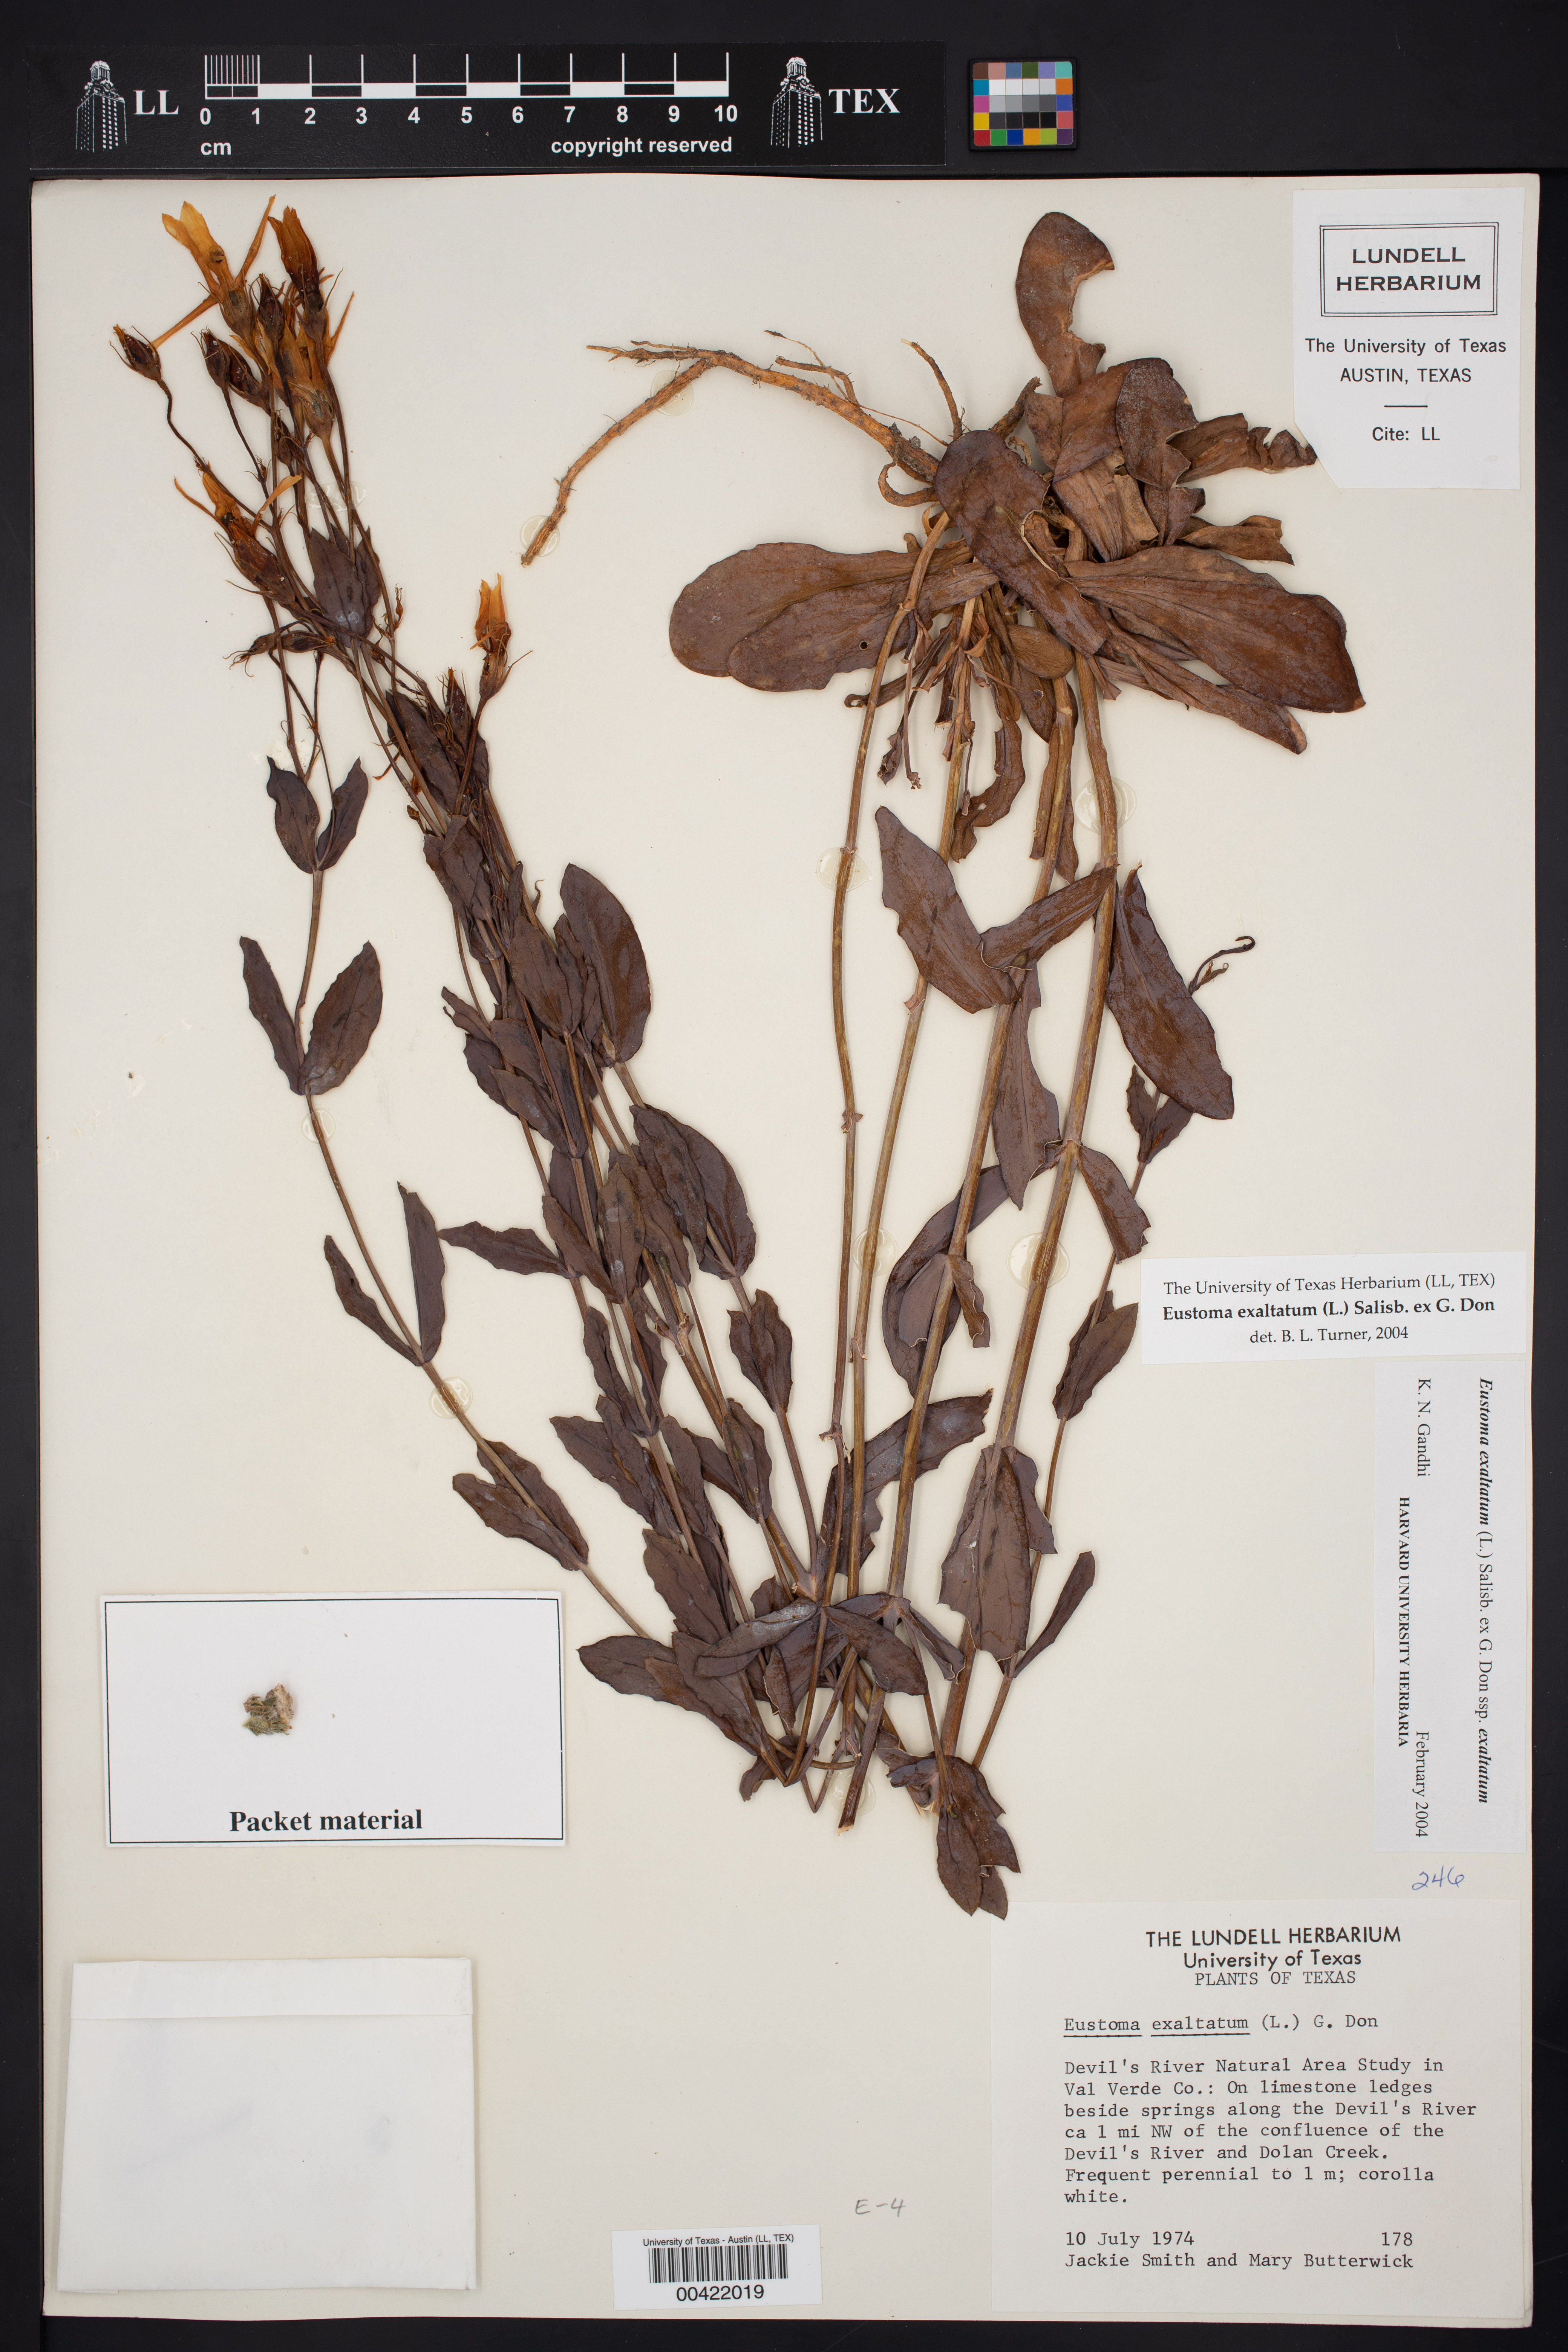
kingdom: Plantae
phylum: Tracheophyta
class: Magnoliopsida
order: Gentianales
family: Gentianaceae
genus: Eustoma
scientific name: Eustoma exaltatum
